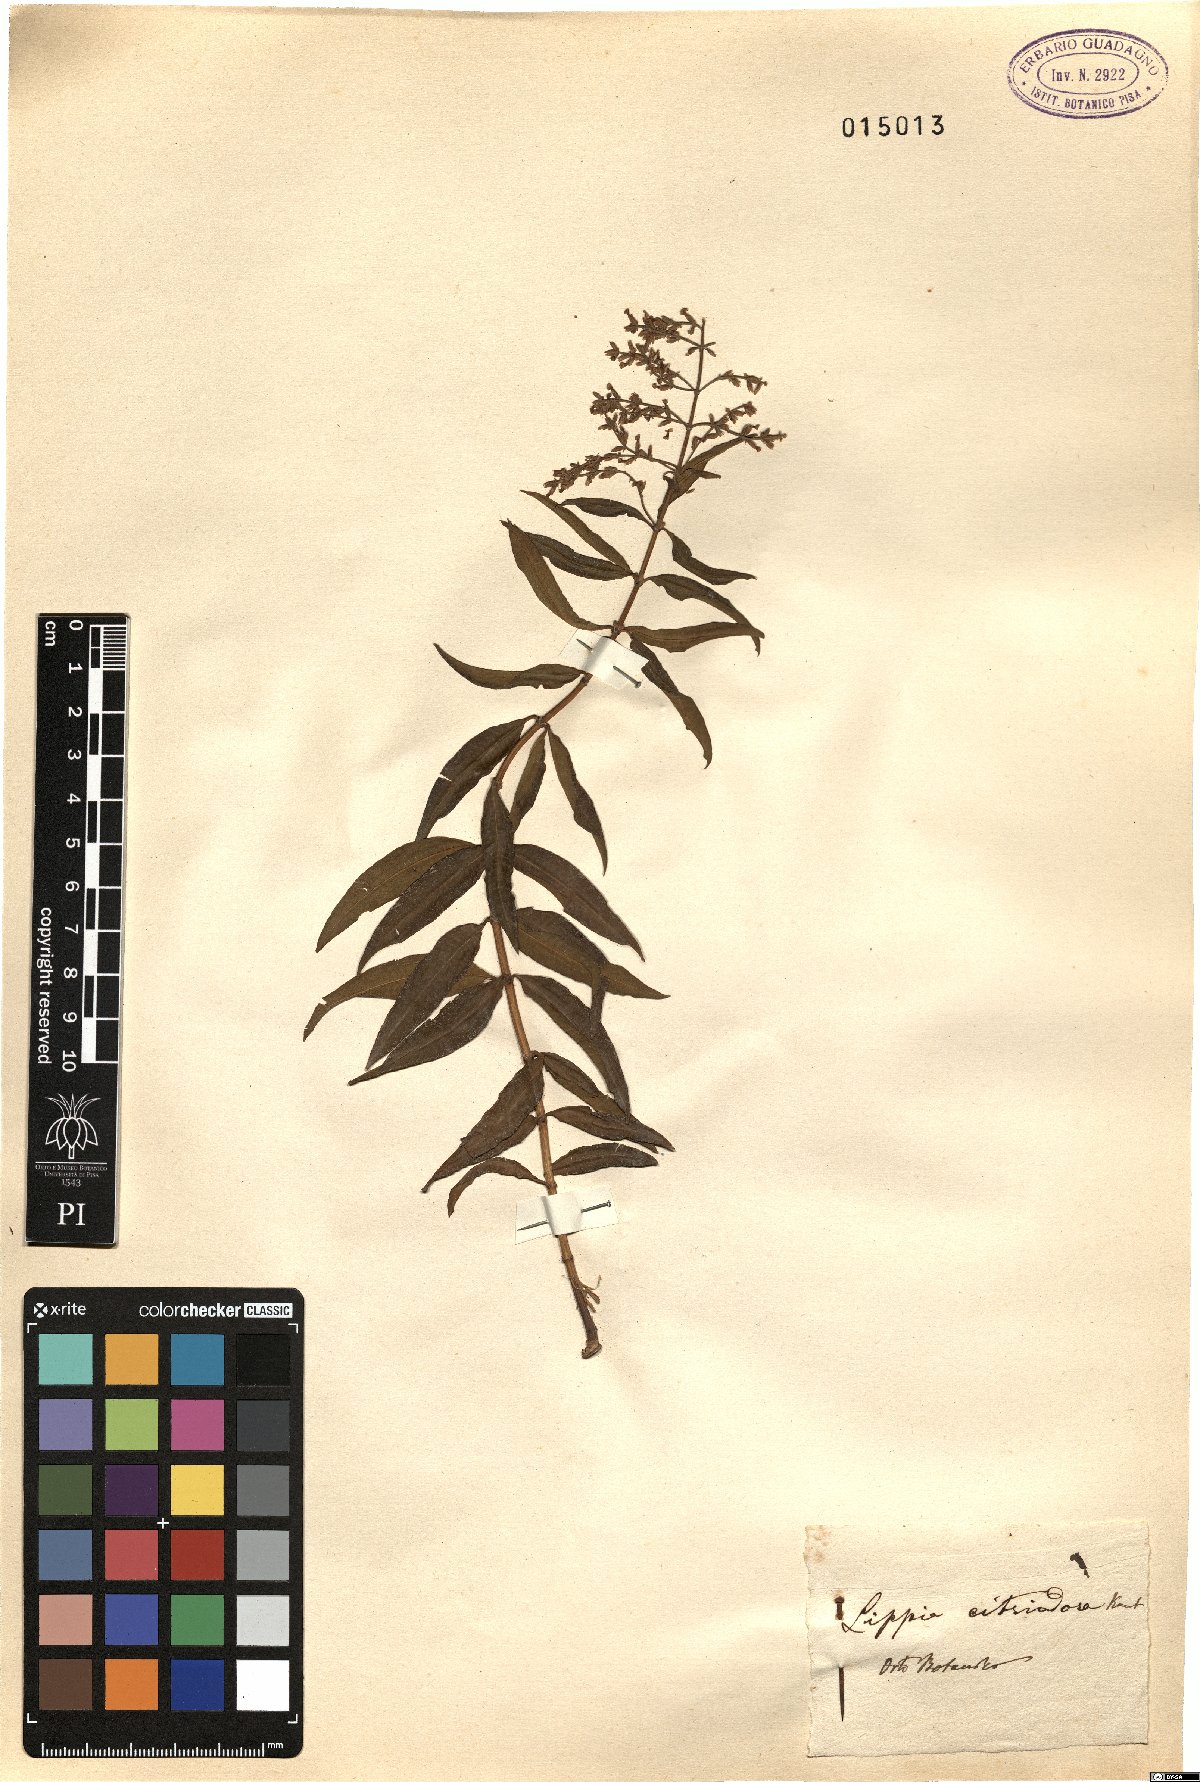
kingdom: Plantae
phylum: Tracheophyta
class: Magnoliopsida
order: Lamiales
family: Verbenaceae
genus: Aloysia
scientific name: Aloysia citrodora
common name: Lemon beebrush
